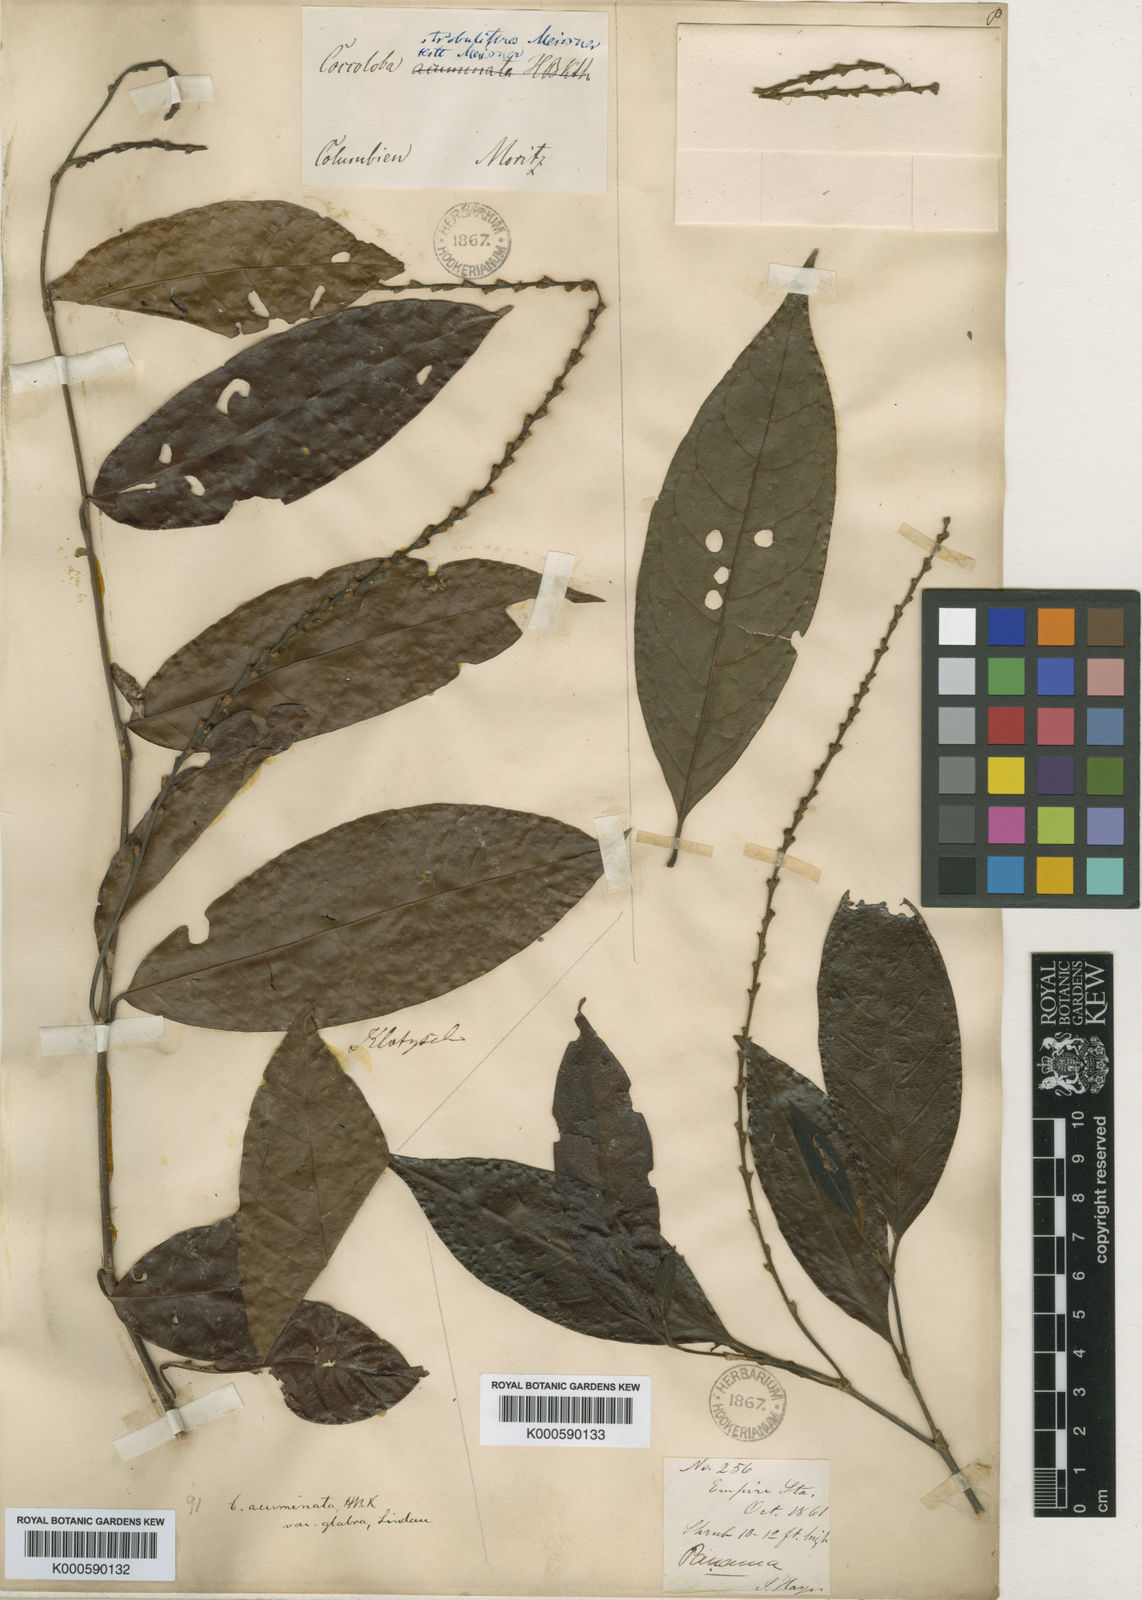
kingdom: Plantae
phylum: Tracheophyta
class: Magnoliopsida
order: Caryophyllales
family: Polygonaceae
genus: Coccoloba
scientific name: Coccoloba acuminata
